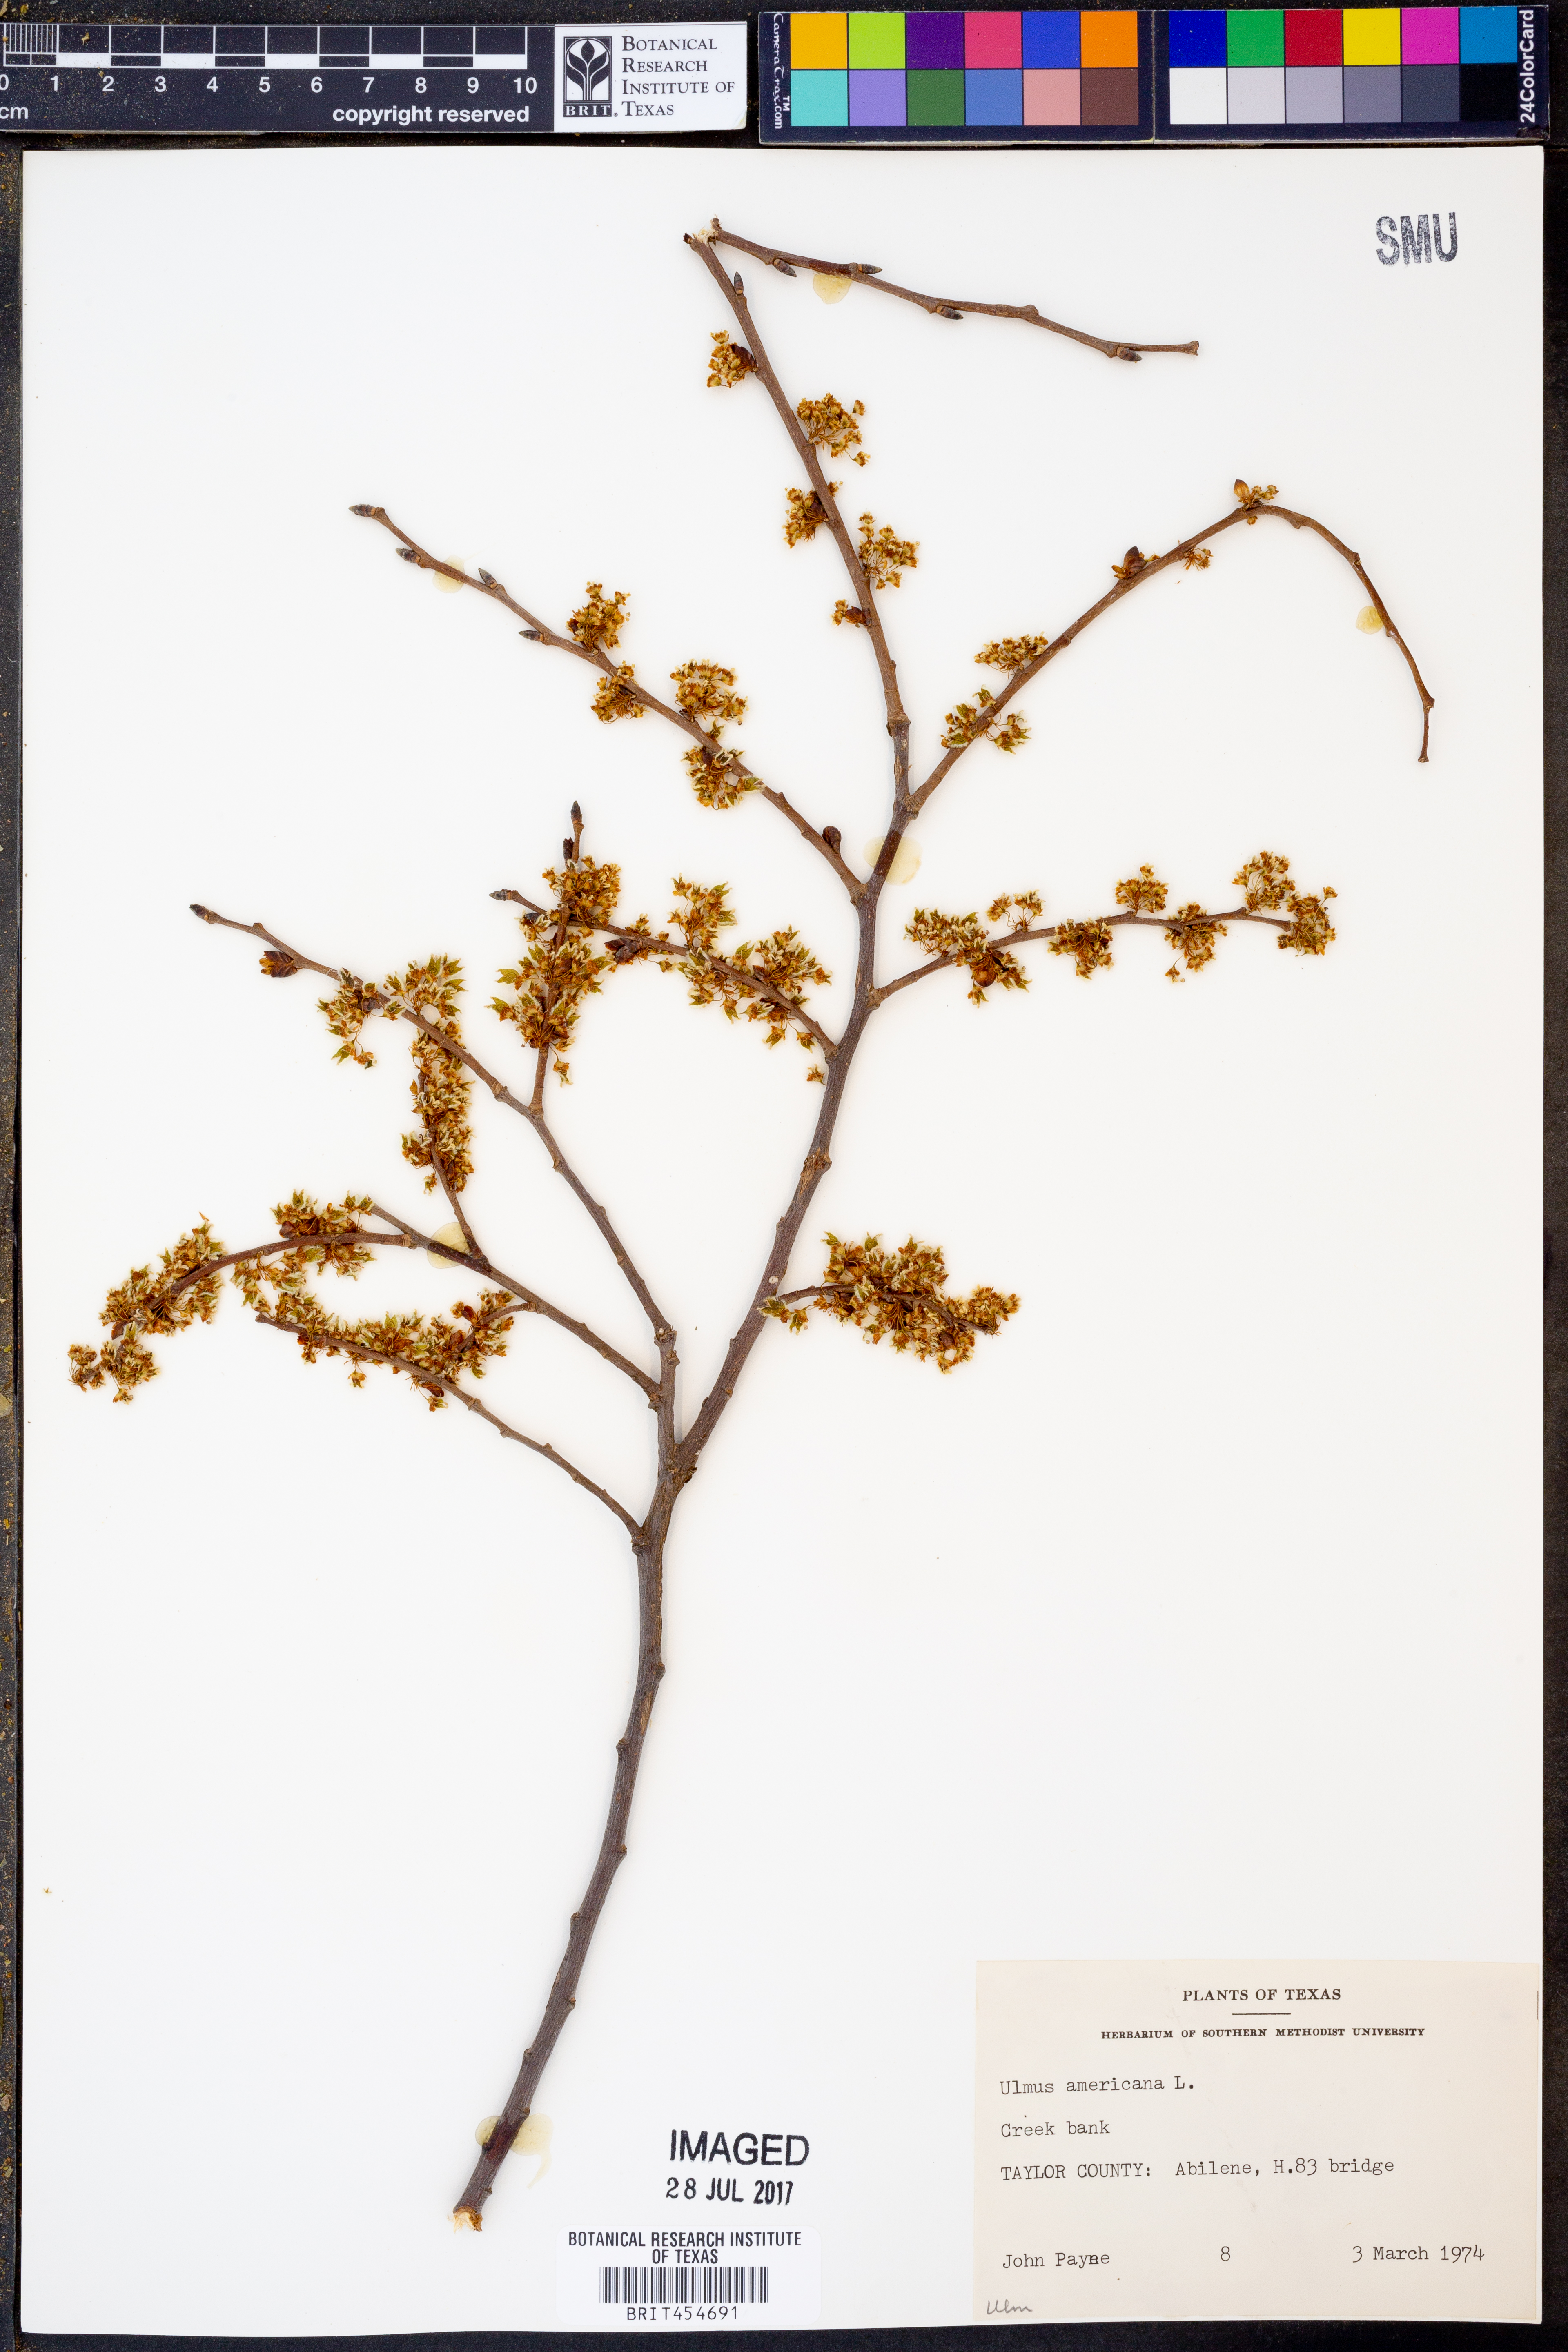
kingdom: Plantae
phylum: Tracheophyta
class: Magnoliopsida
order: Rosales
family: Ulmaceae
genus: Ulmus
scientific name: Ulmus americana
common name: American elm
